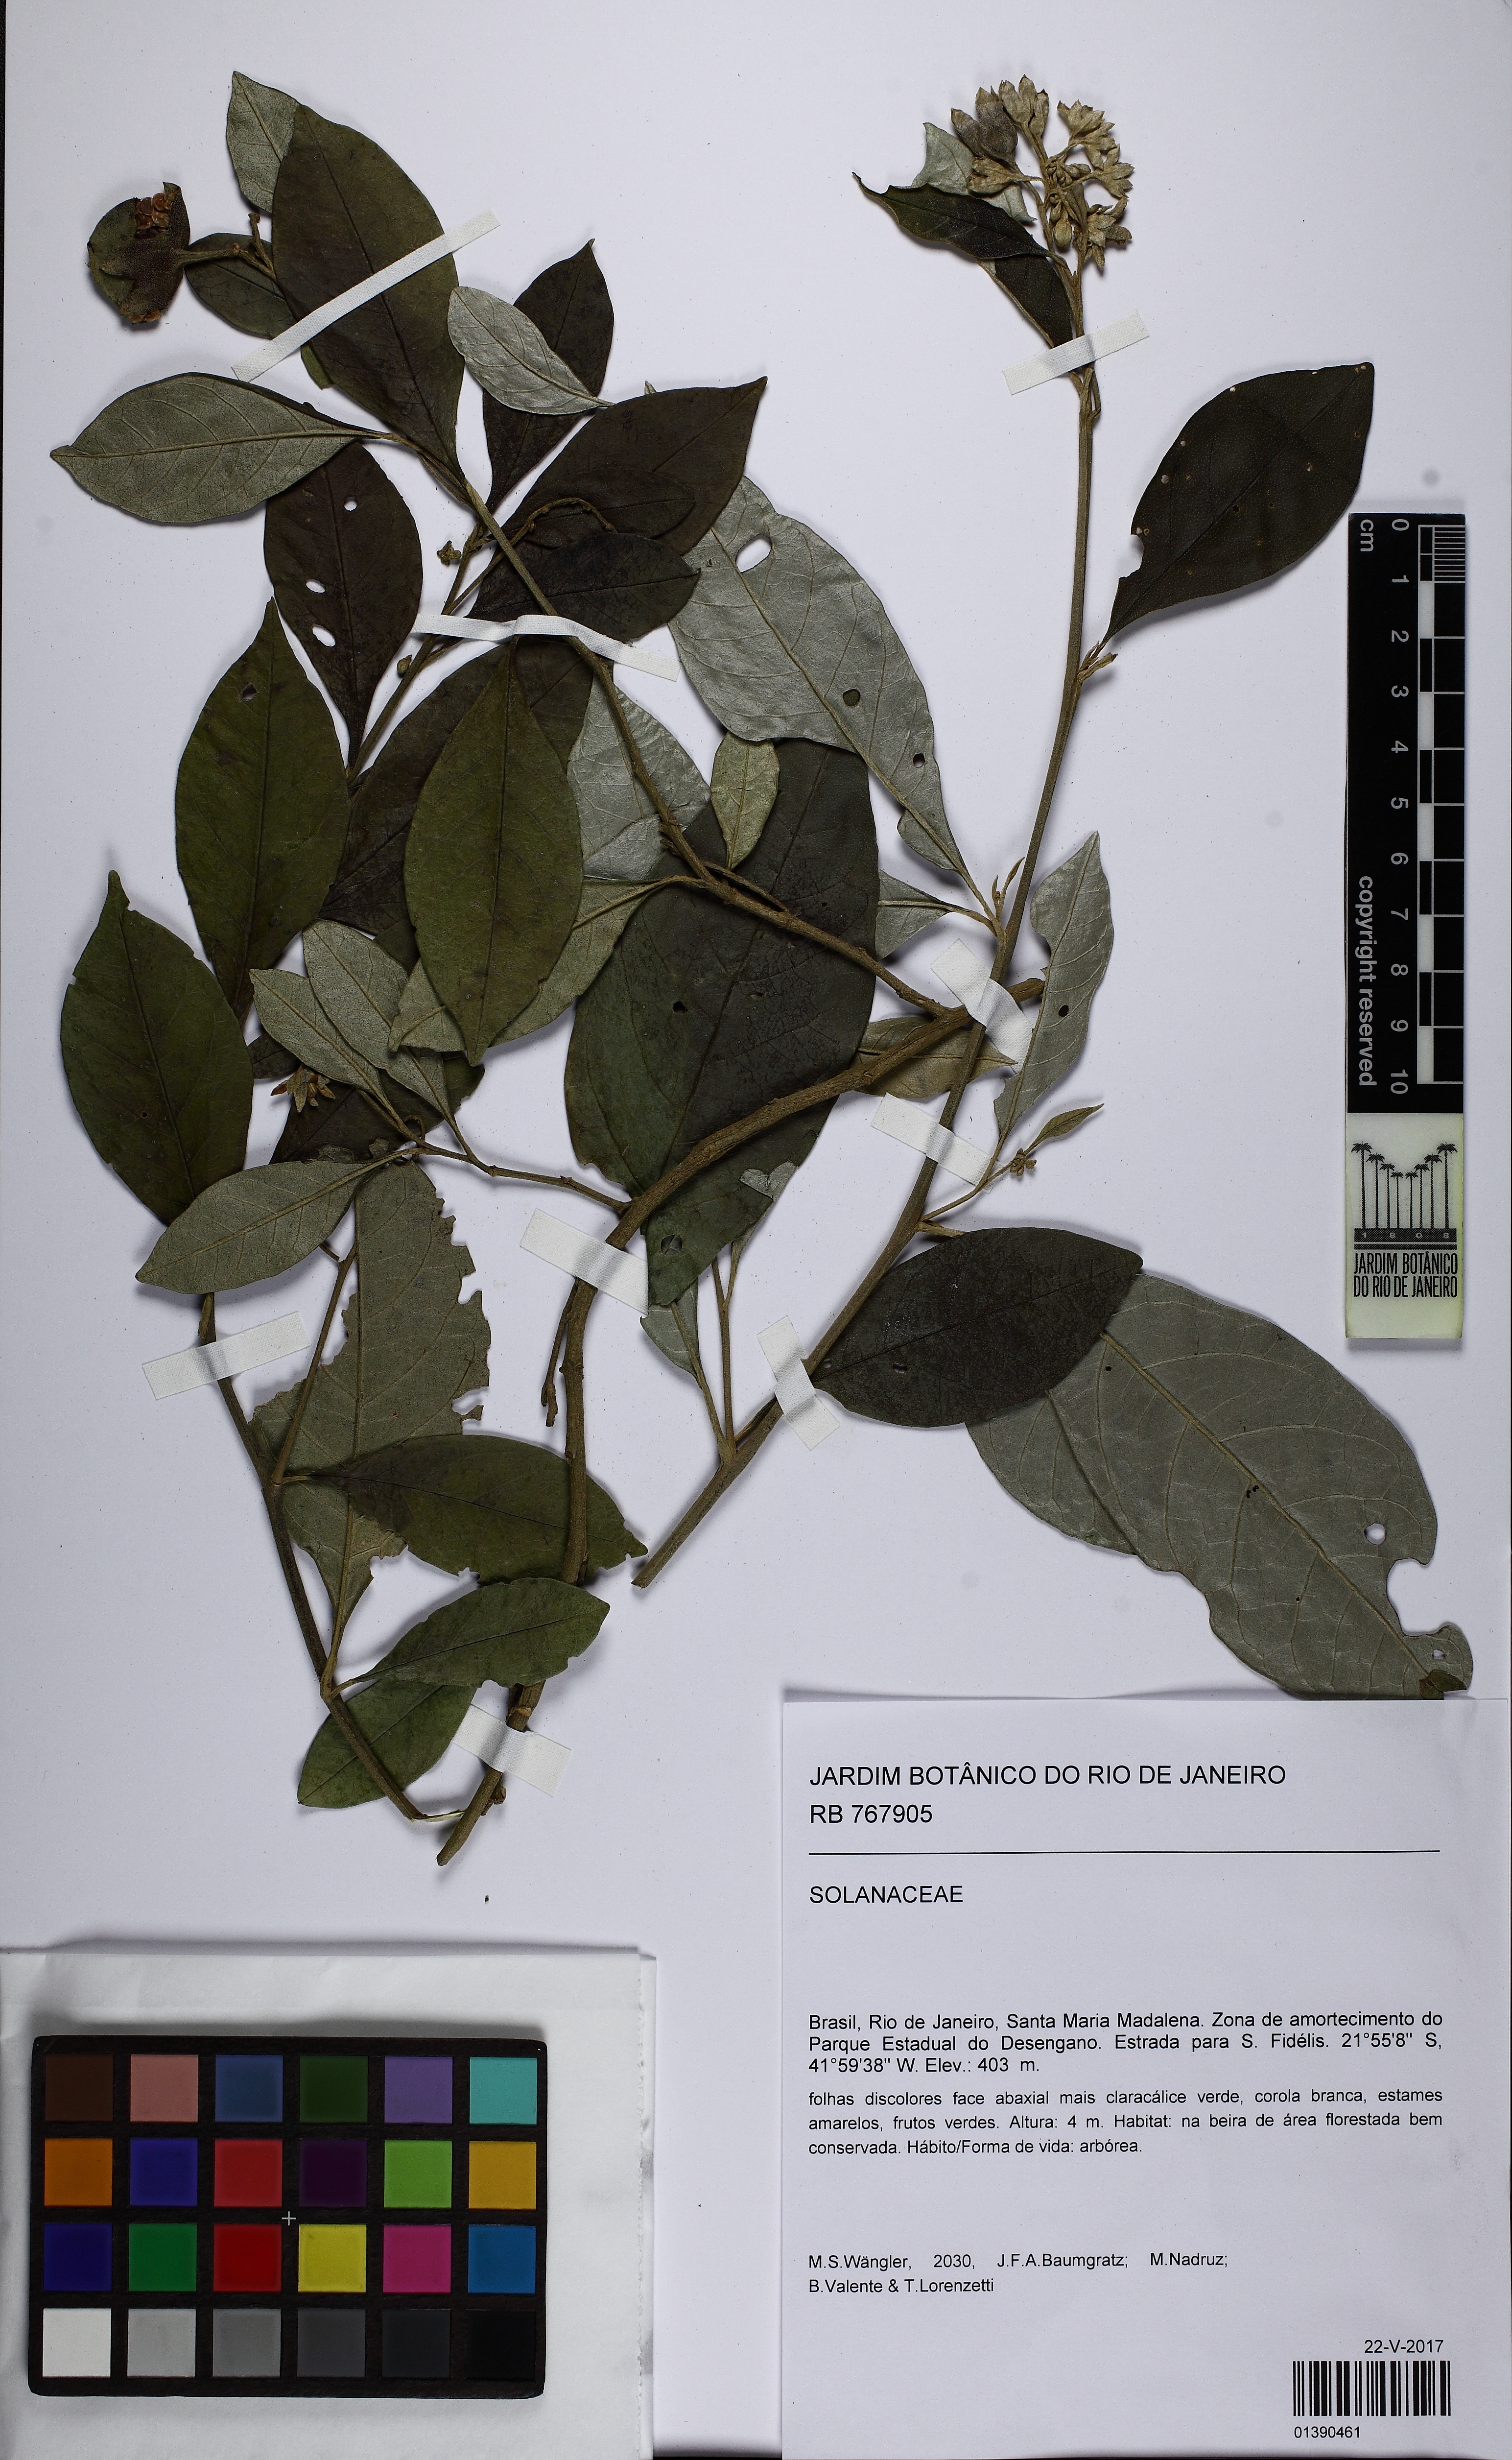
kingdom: Plantae
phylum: Tracheophyta
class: Magnoliopsida
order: Solanales
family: Solanaceae
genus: Solanum
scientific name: Solanum swartzianum
